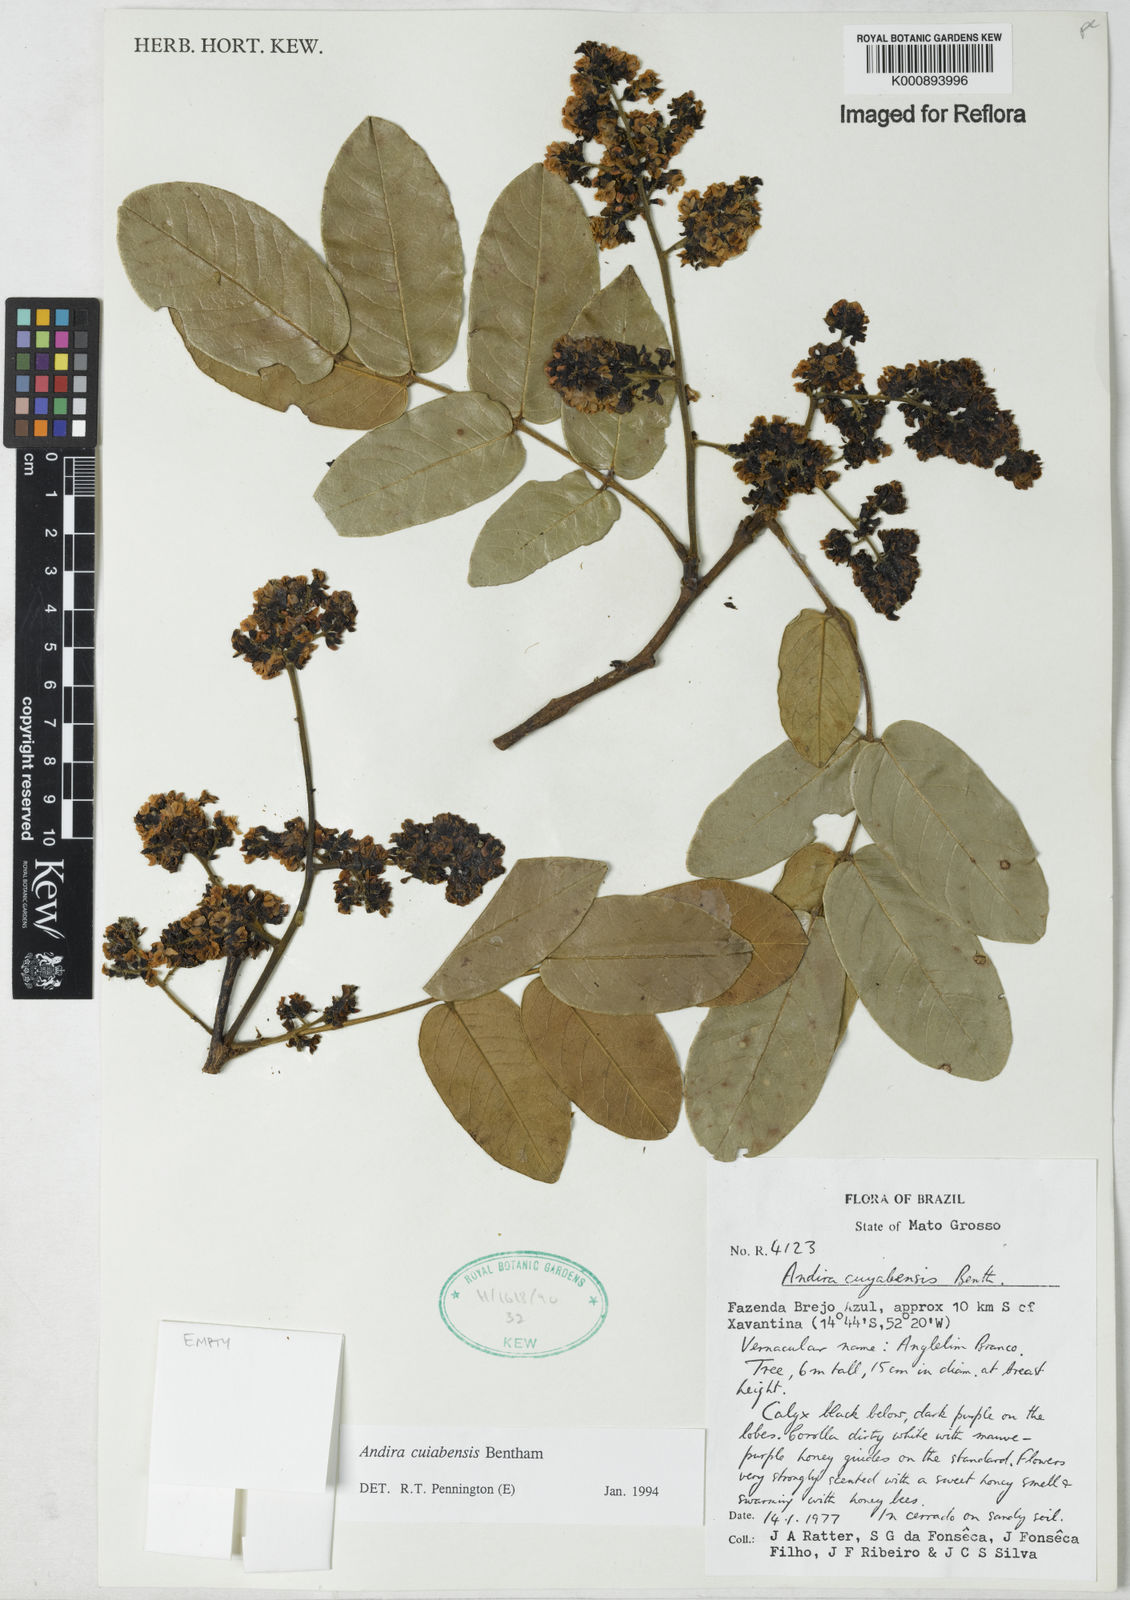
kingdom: Plantae
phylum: Tracheophyta
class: Magnoliopsida
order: Fabales
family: Fabaceae
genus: Andira
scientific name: Andira cujabensis
